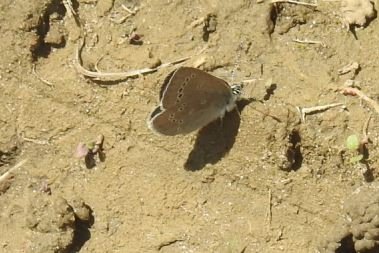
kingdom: Animalia
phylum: Arthropoda
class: Insecta
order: Lepidoptera
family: Lycaenidae
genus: Glaucopsyche
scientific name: Glaucopsyche lygdamus
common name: Silvery Blue
